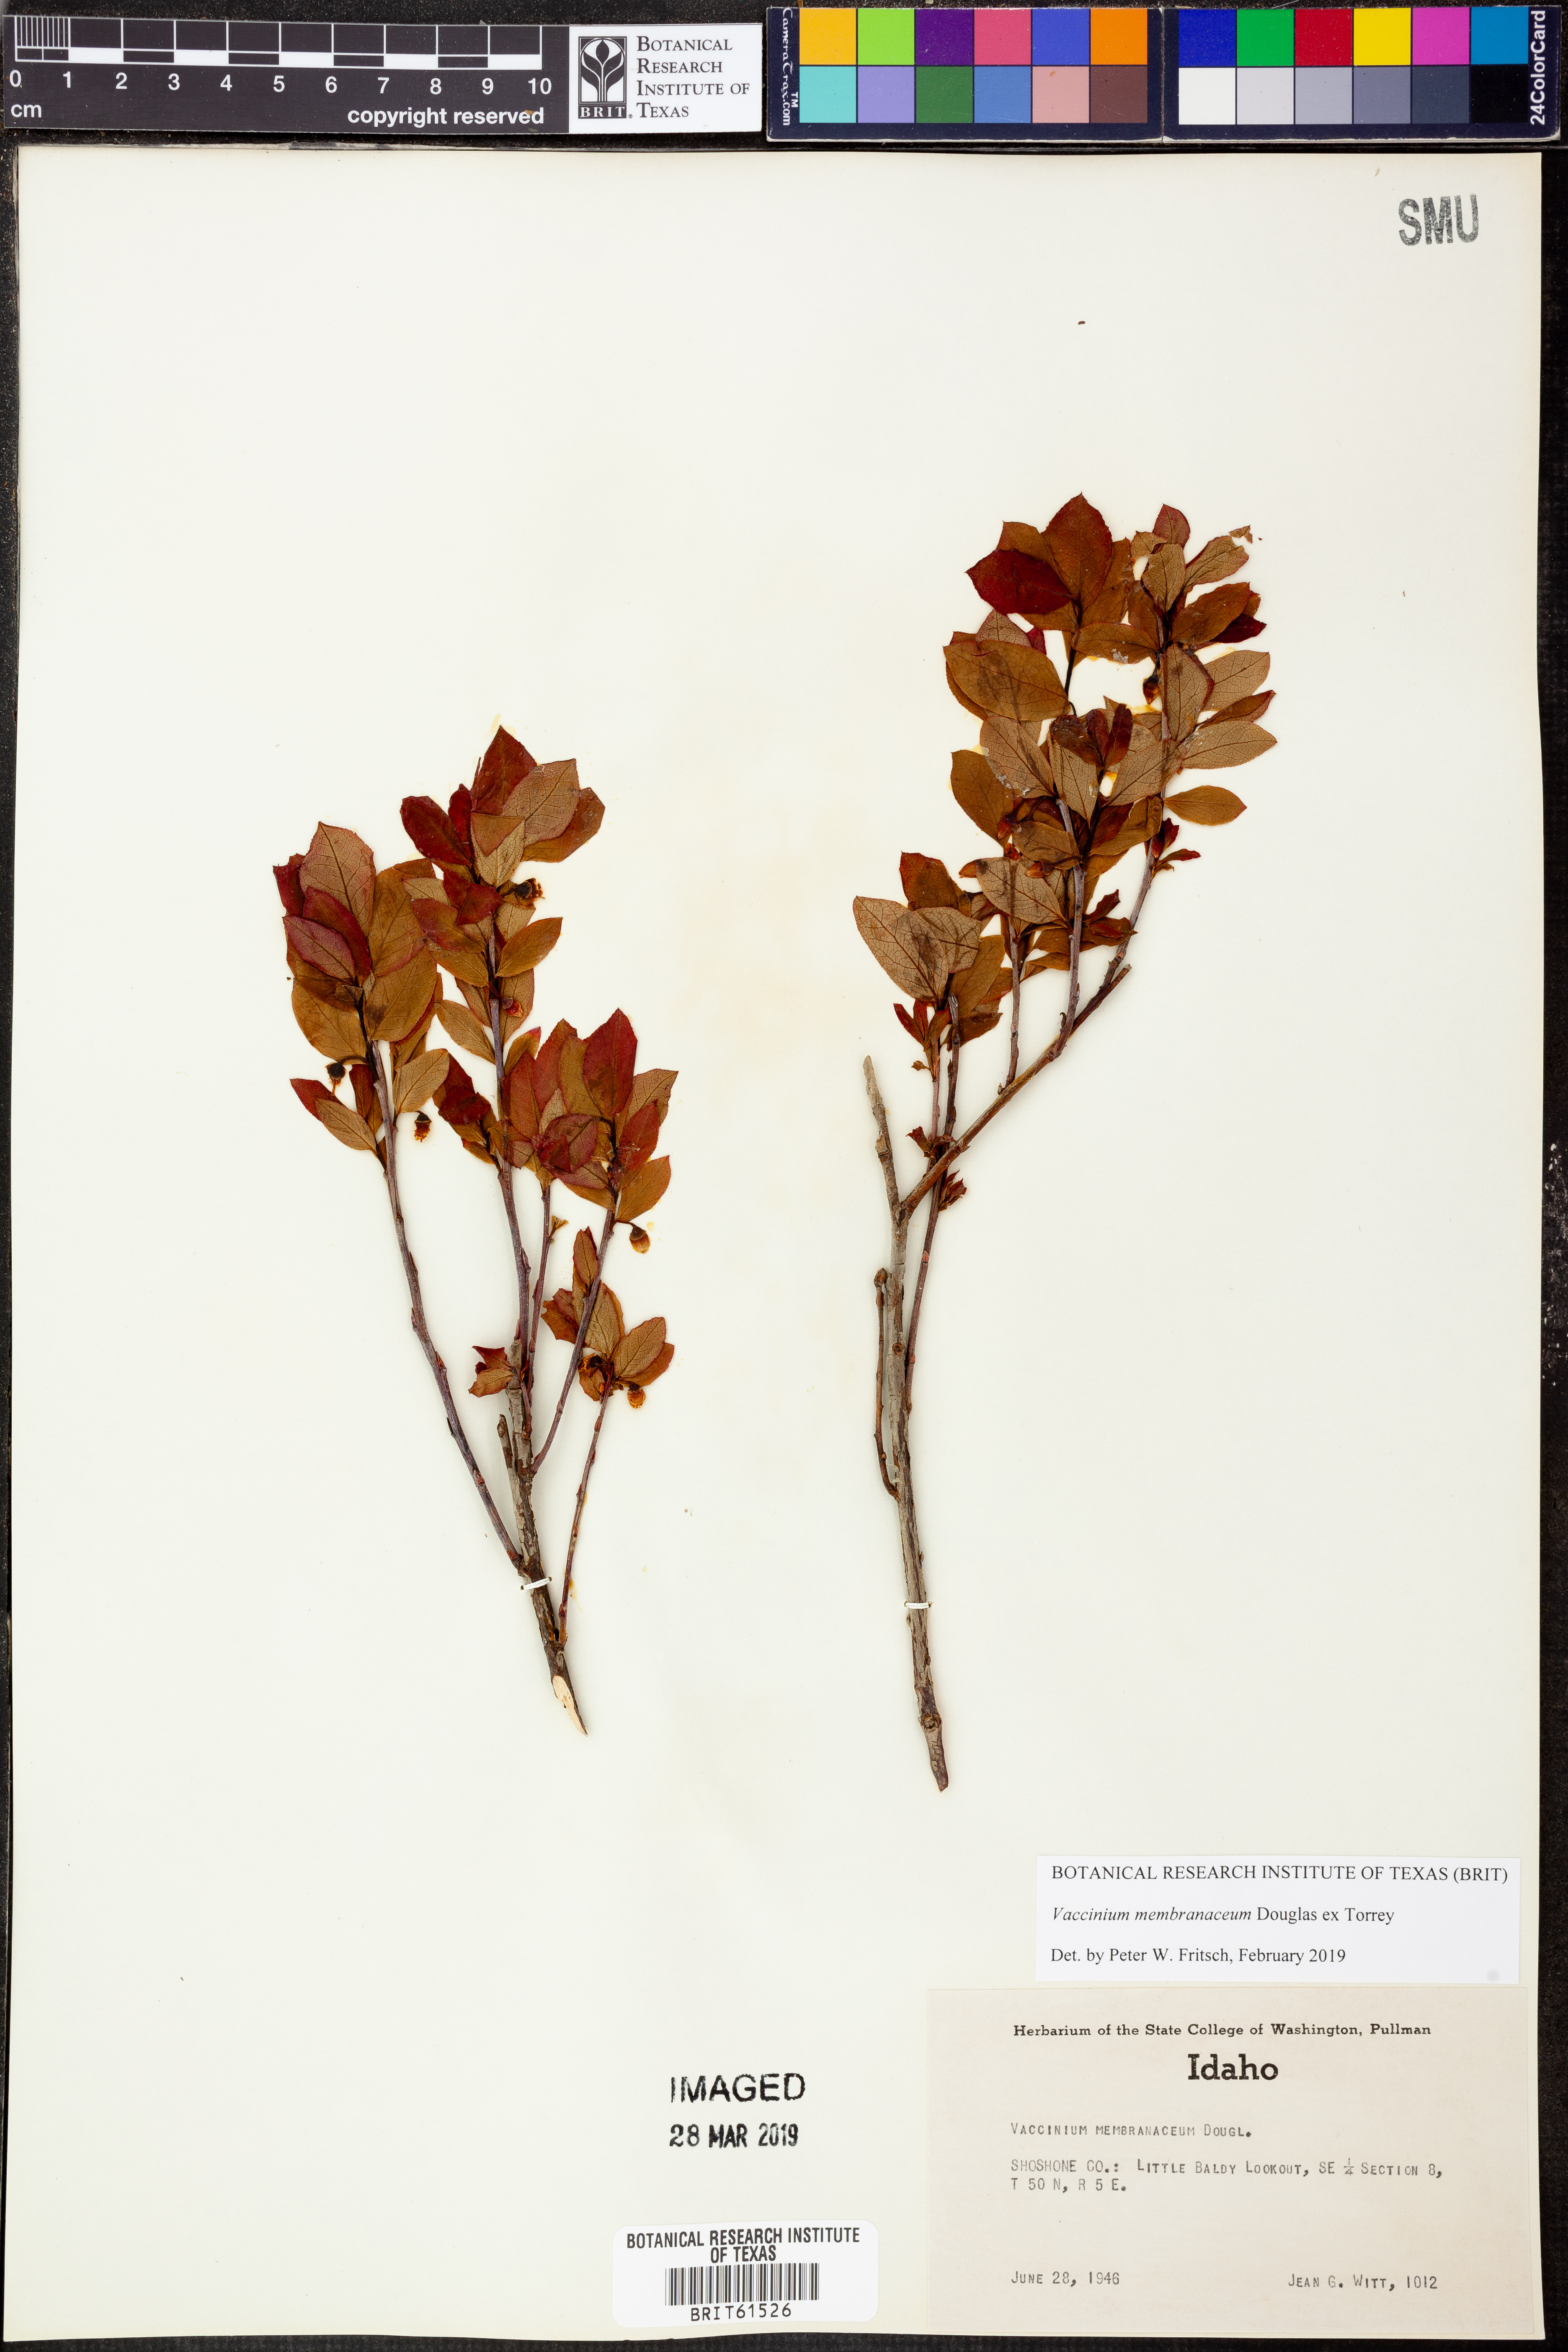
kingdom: Plantae
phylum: Tracheophyta
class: Magnoliopsida
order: Ericales
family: Ericaceae
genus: Vaccinium
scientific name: Vaccinium deliciosum
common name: Cascade bilberry
